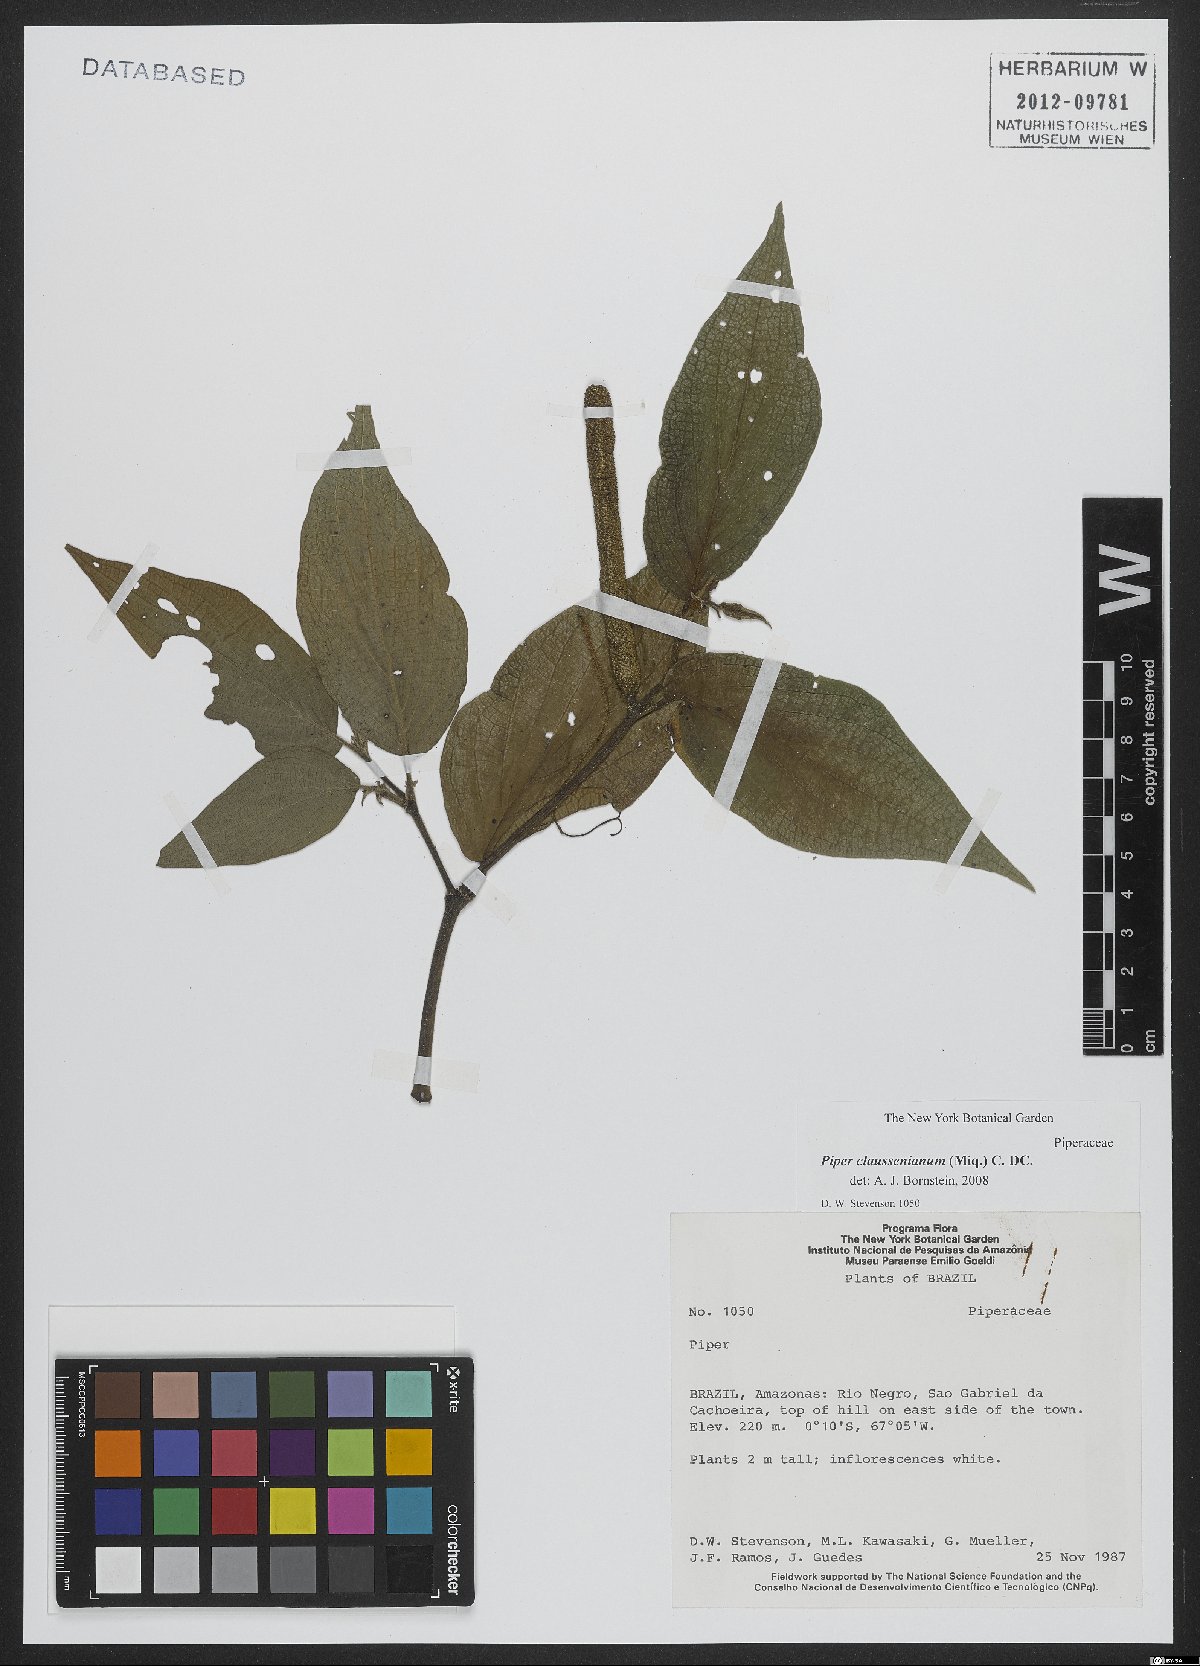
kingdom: Plantae
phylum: Tracheophyta
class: Magnoliopsida
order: Piperales
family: Piperaceae
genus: Piper
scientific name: Piper claussenianum
